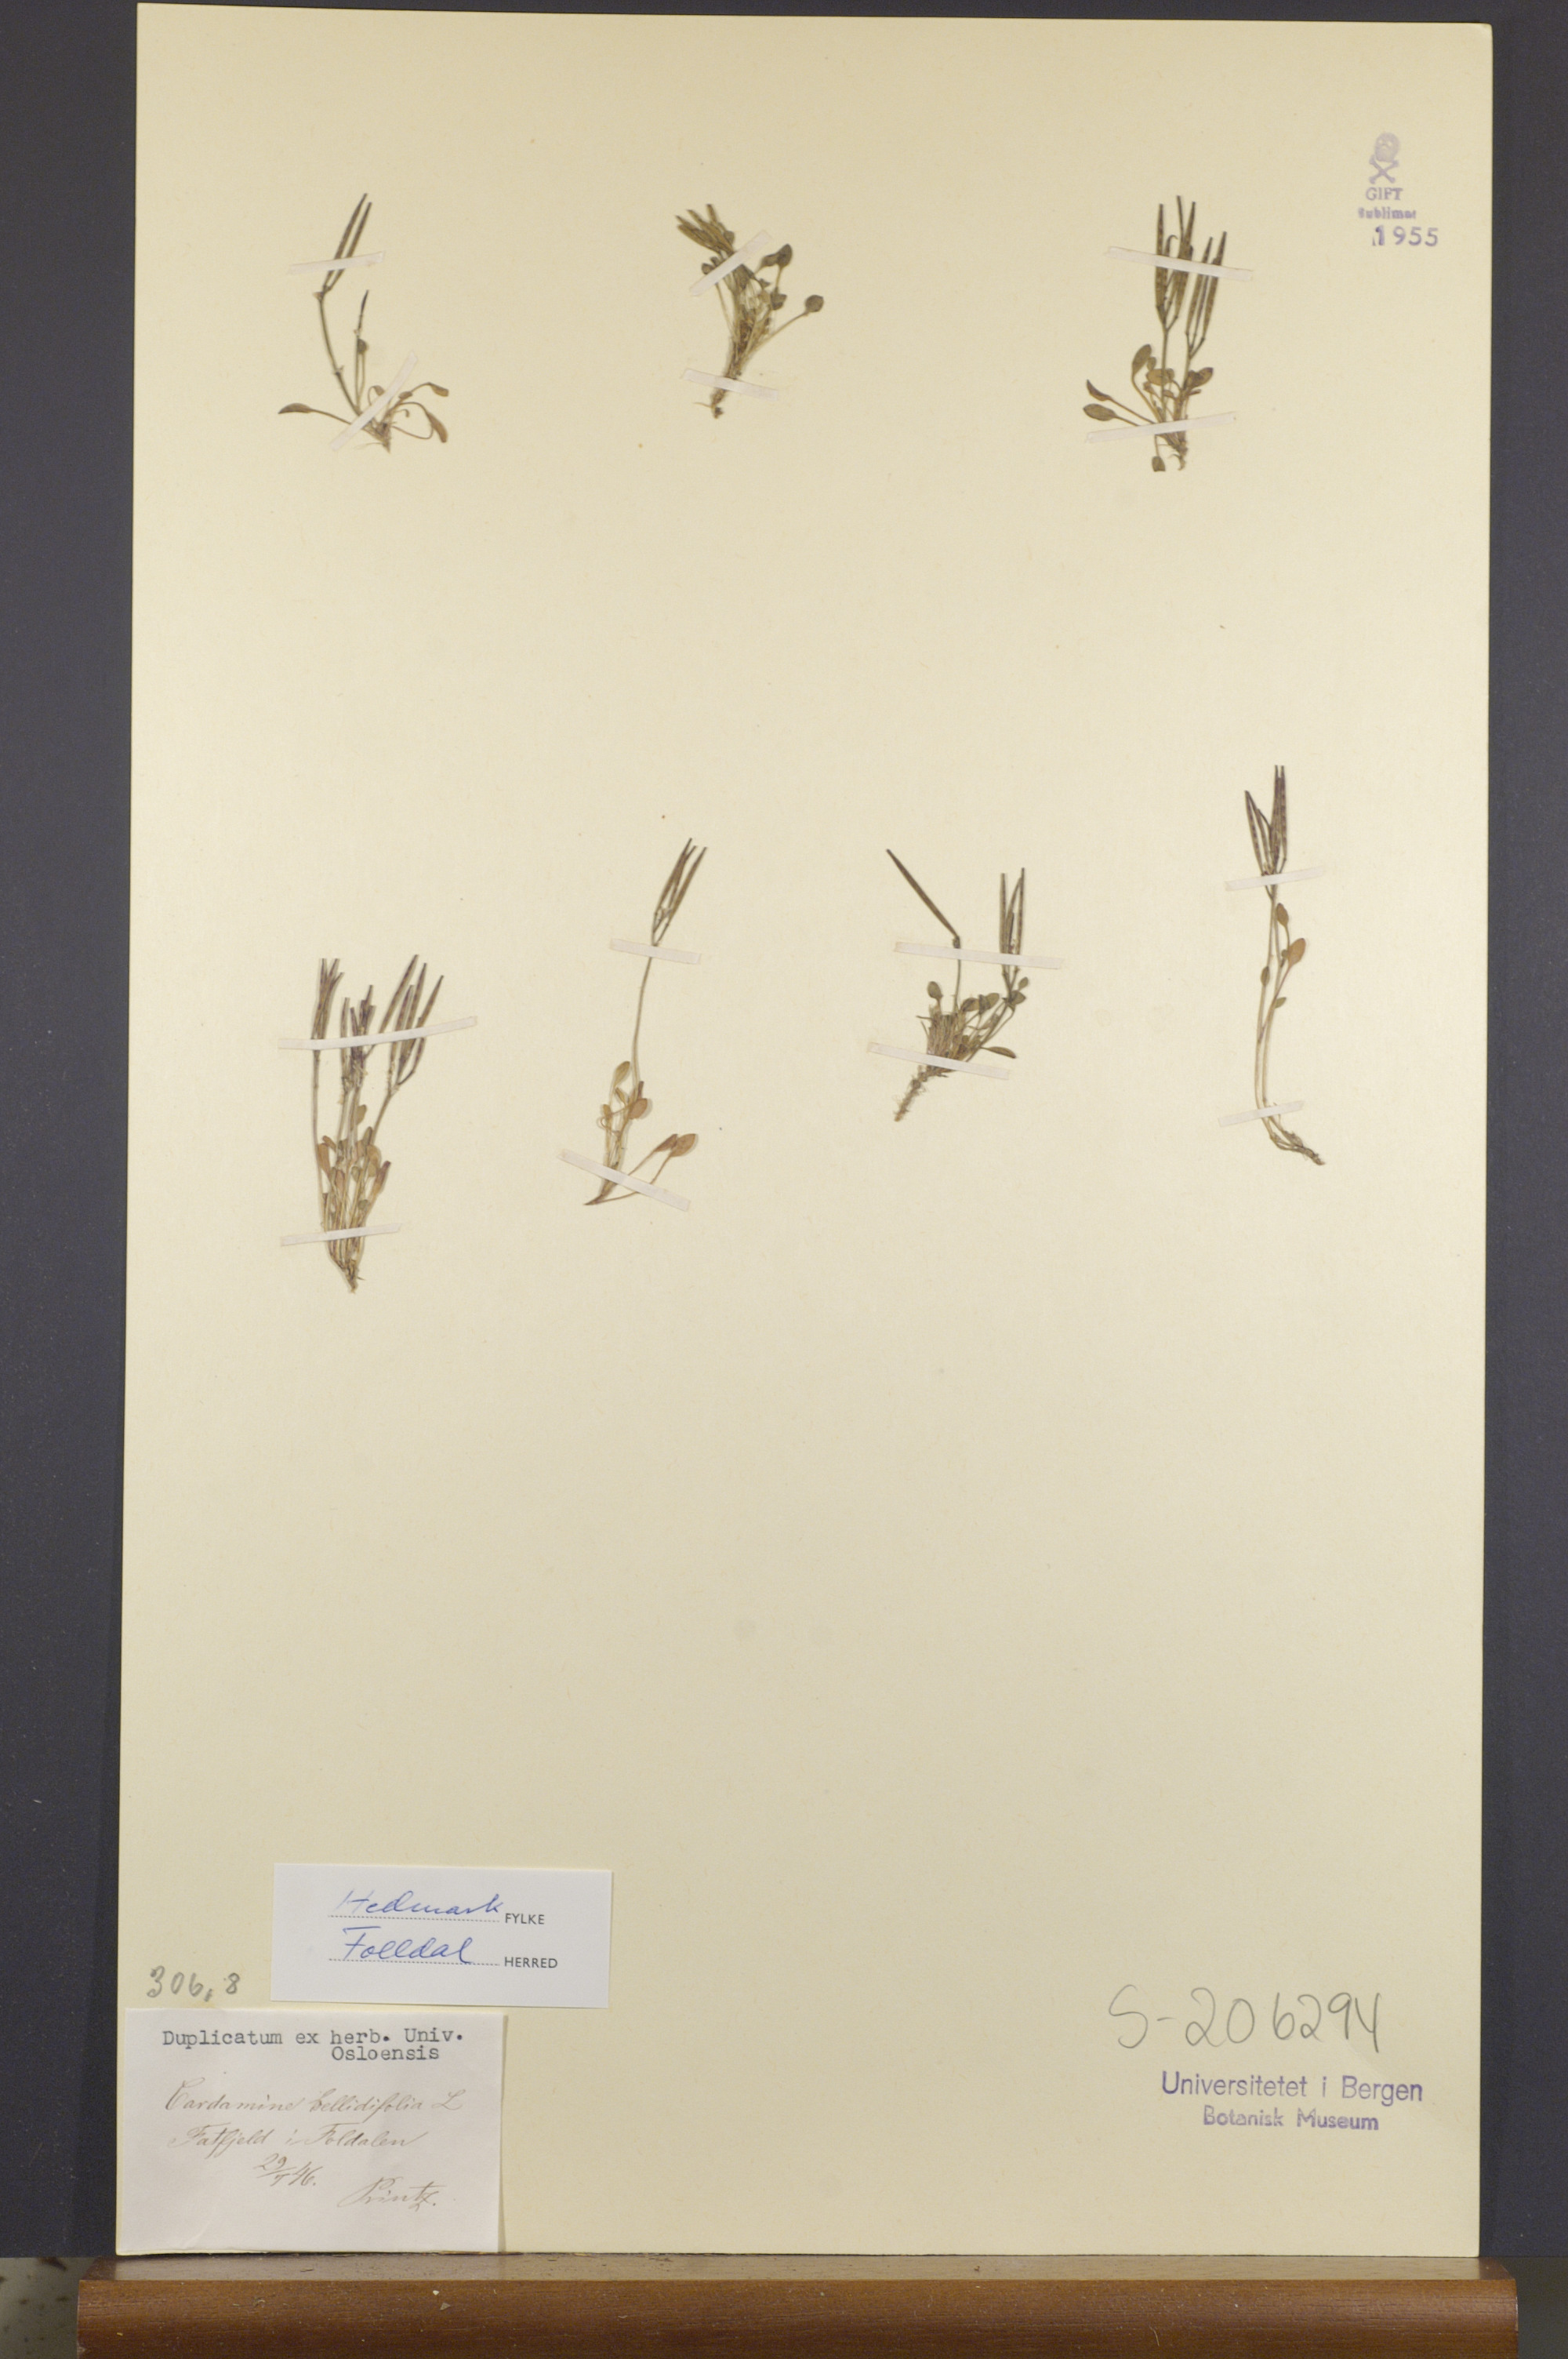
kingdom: Plantae
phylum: Tracheophyta
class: Magnoliopsida
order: Brassicales
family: Brassicaceae
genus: Cardamine
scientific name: Cardamine bellidifolia
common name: Alpine bittercress
